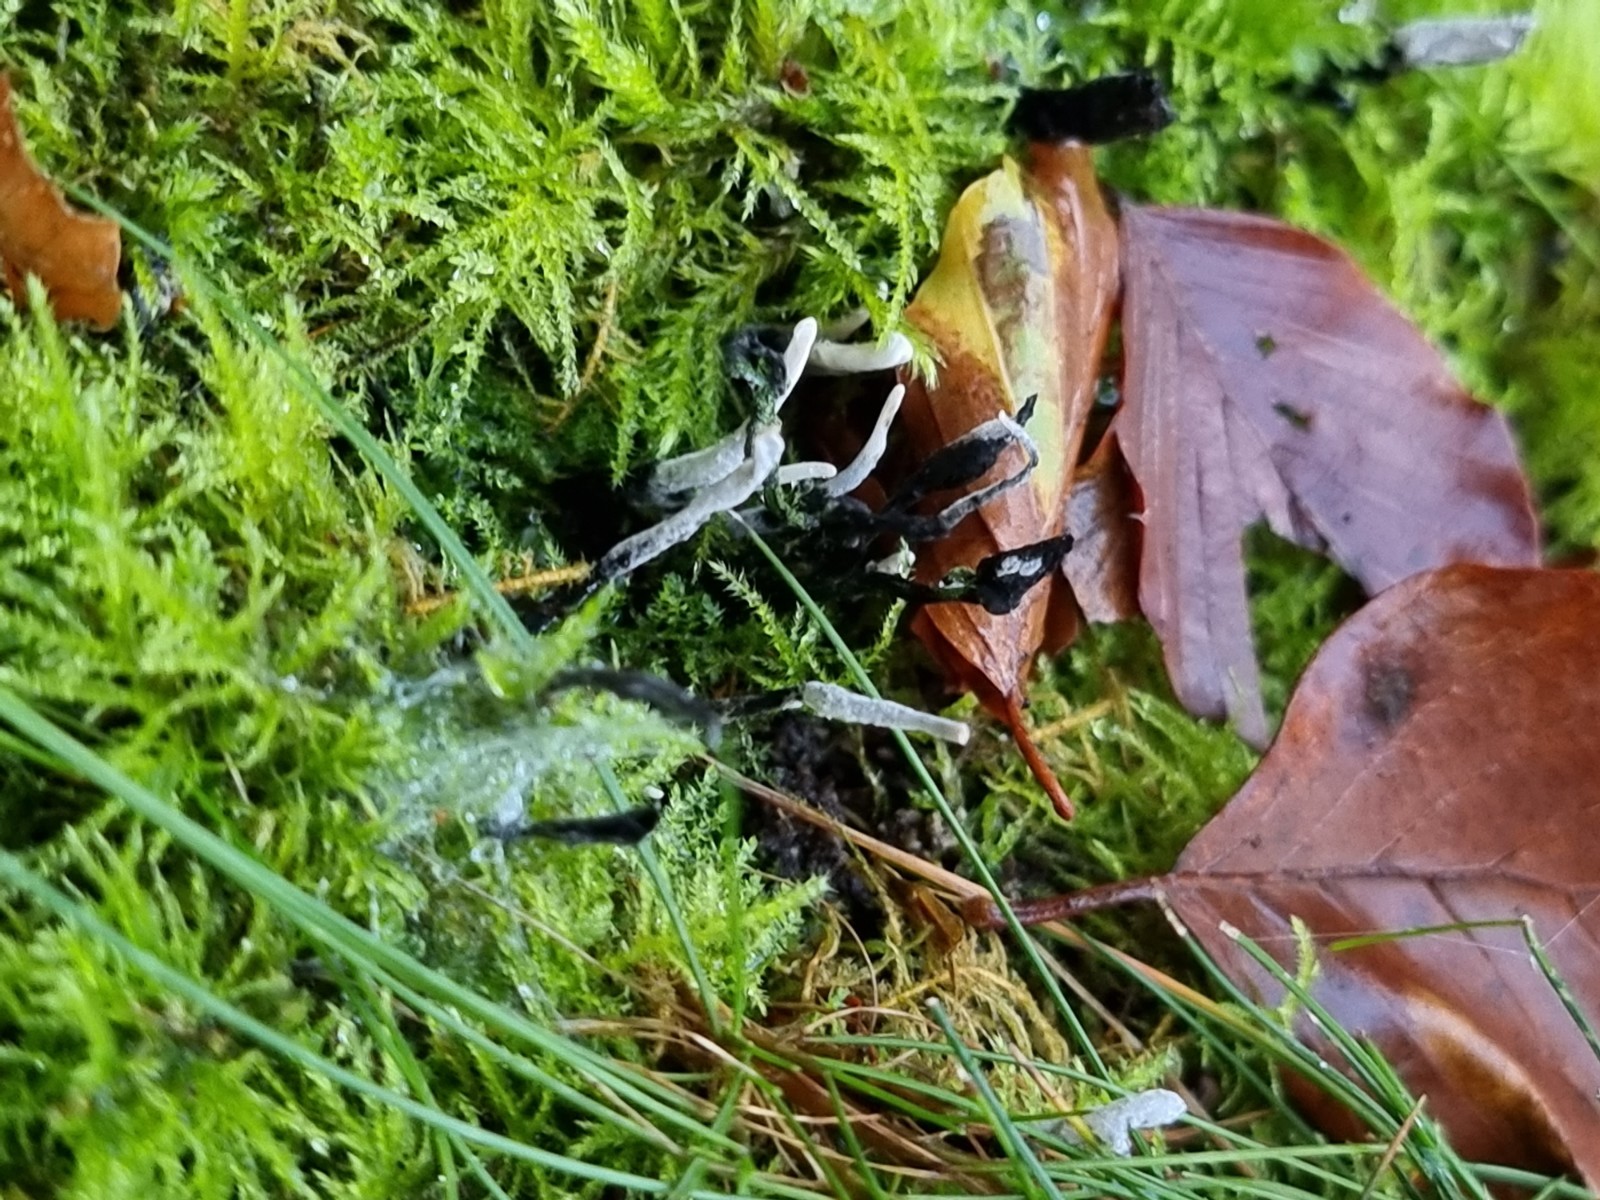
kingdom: Fungi
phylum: Ascomycota
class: Sordariomycetes
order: Xylariales
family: Xylariaceae
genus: Xylaria
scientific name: Xylaria hypoxylon
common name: grenet stødsvamp
